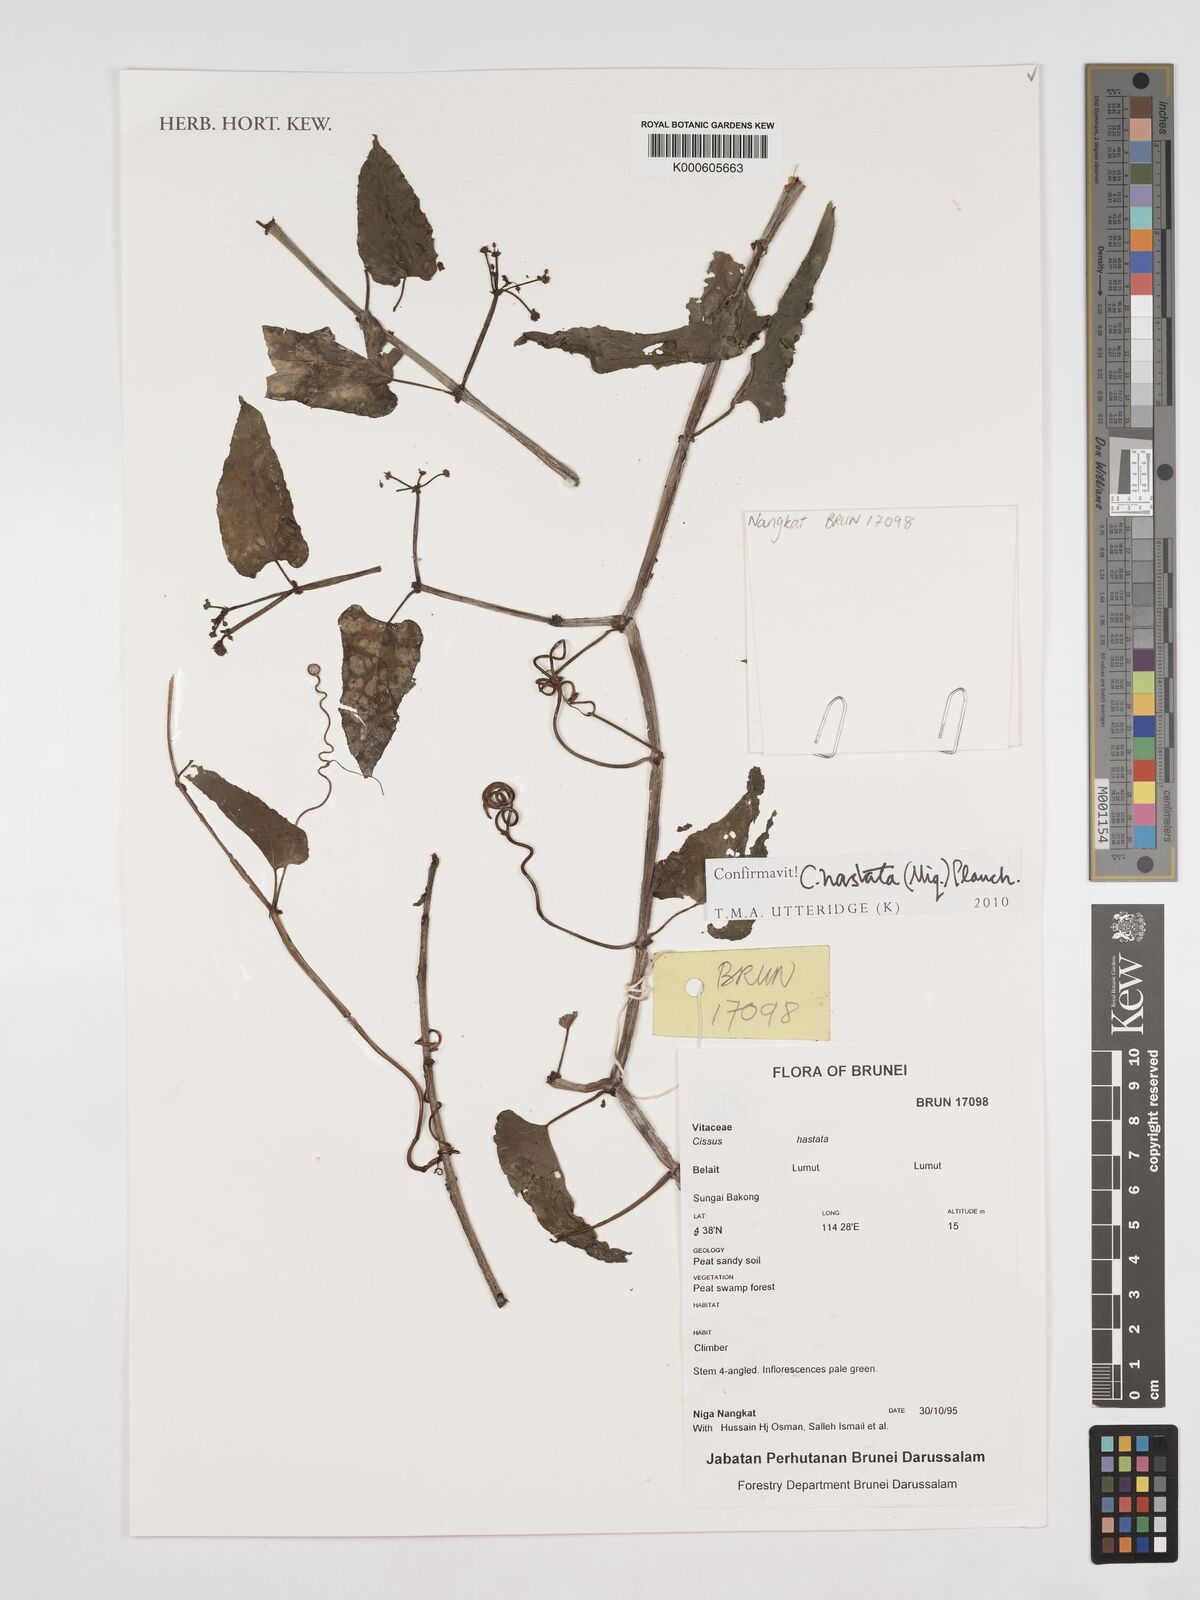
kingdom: Plantae
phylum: Tracheophyta
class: Magnoliopsida
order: Vitales
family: Vitaceae
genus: Cissus
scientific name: Cissus
